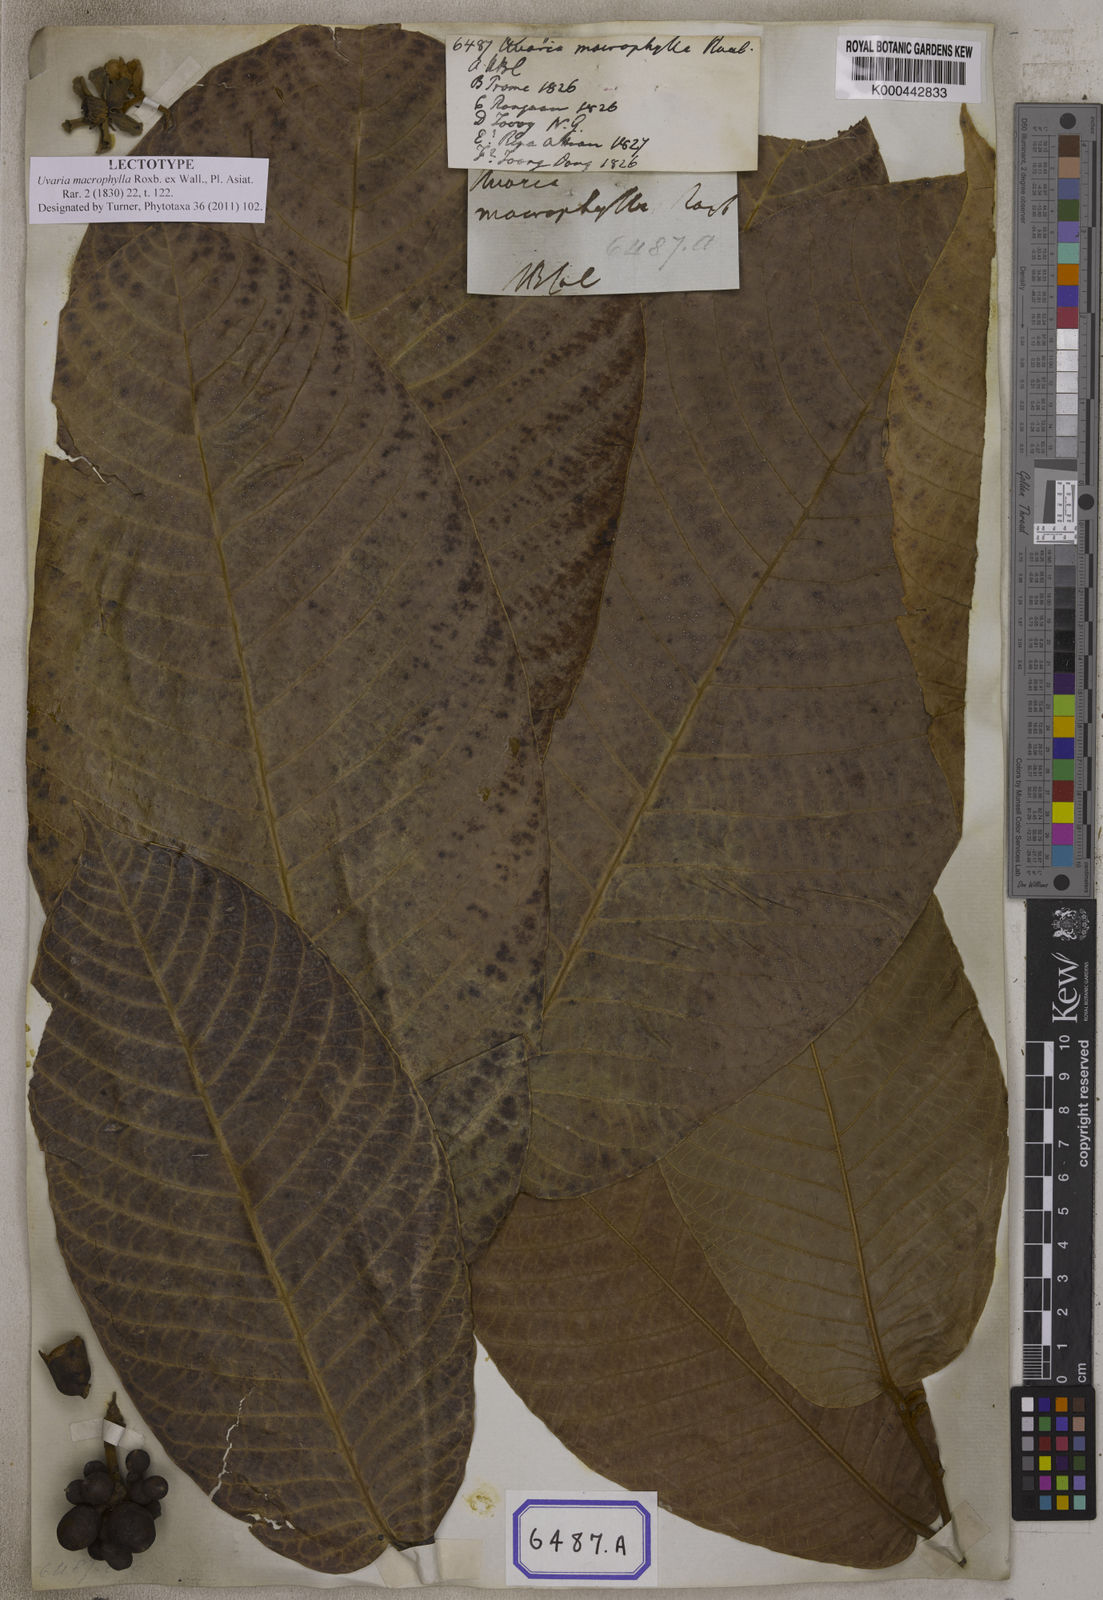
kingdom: Plantae
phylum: Tracheophyta
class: Magnoliopsida
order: Magnoliales
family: Annonaceae
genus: Uvaria
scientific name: Uvaria littoralis
